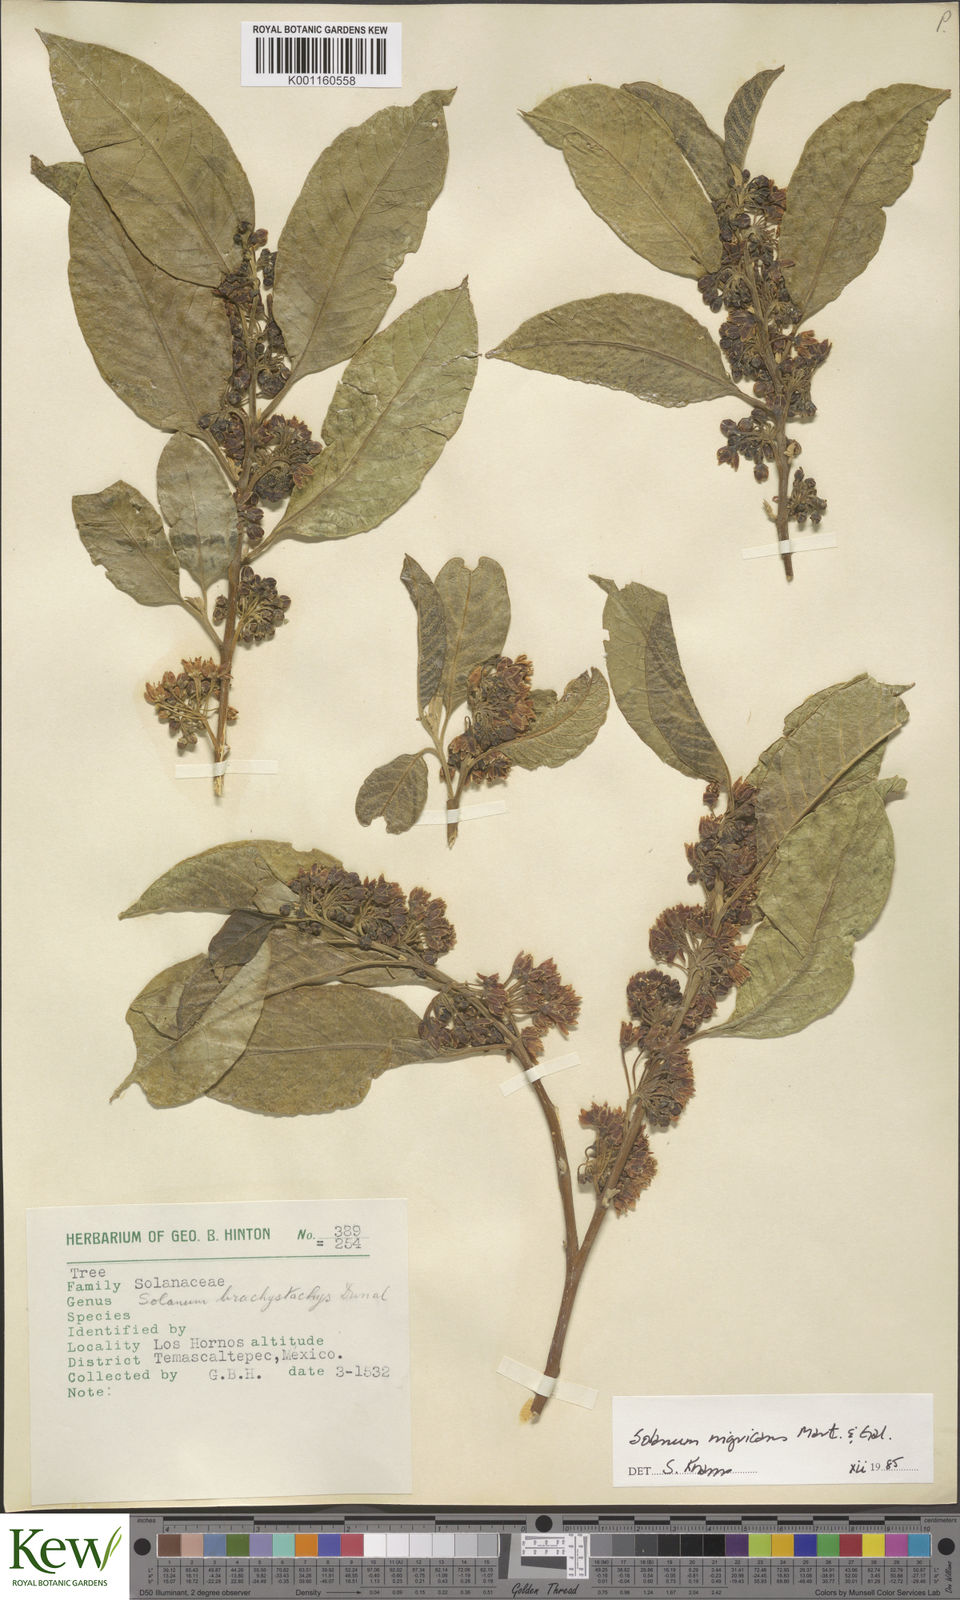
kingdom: Plantae
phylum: Tracheophyta
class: Magnoliopsida
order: Solanales
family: Solanaceae
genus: Solanum
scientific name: Solanum nigricans
